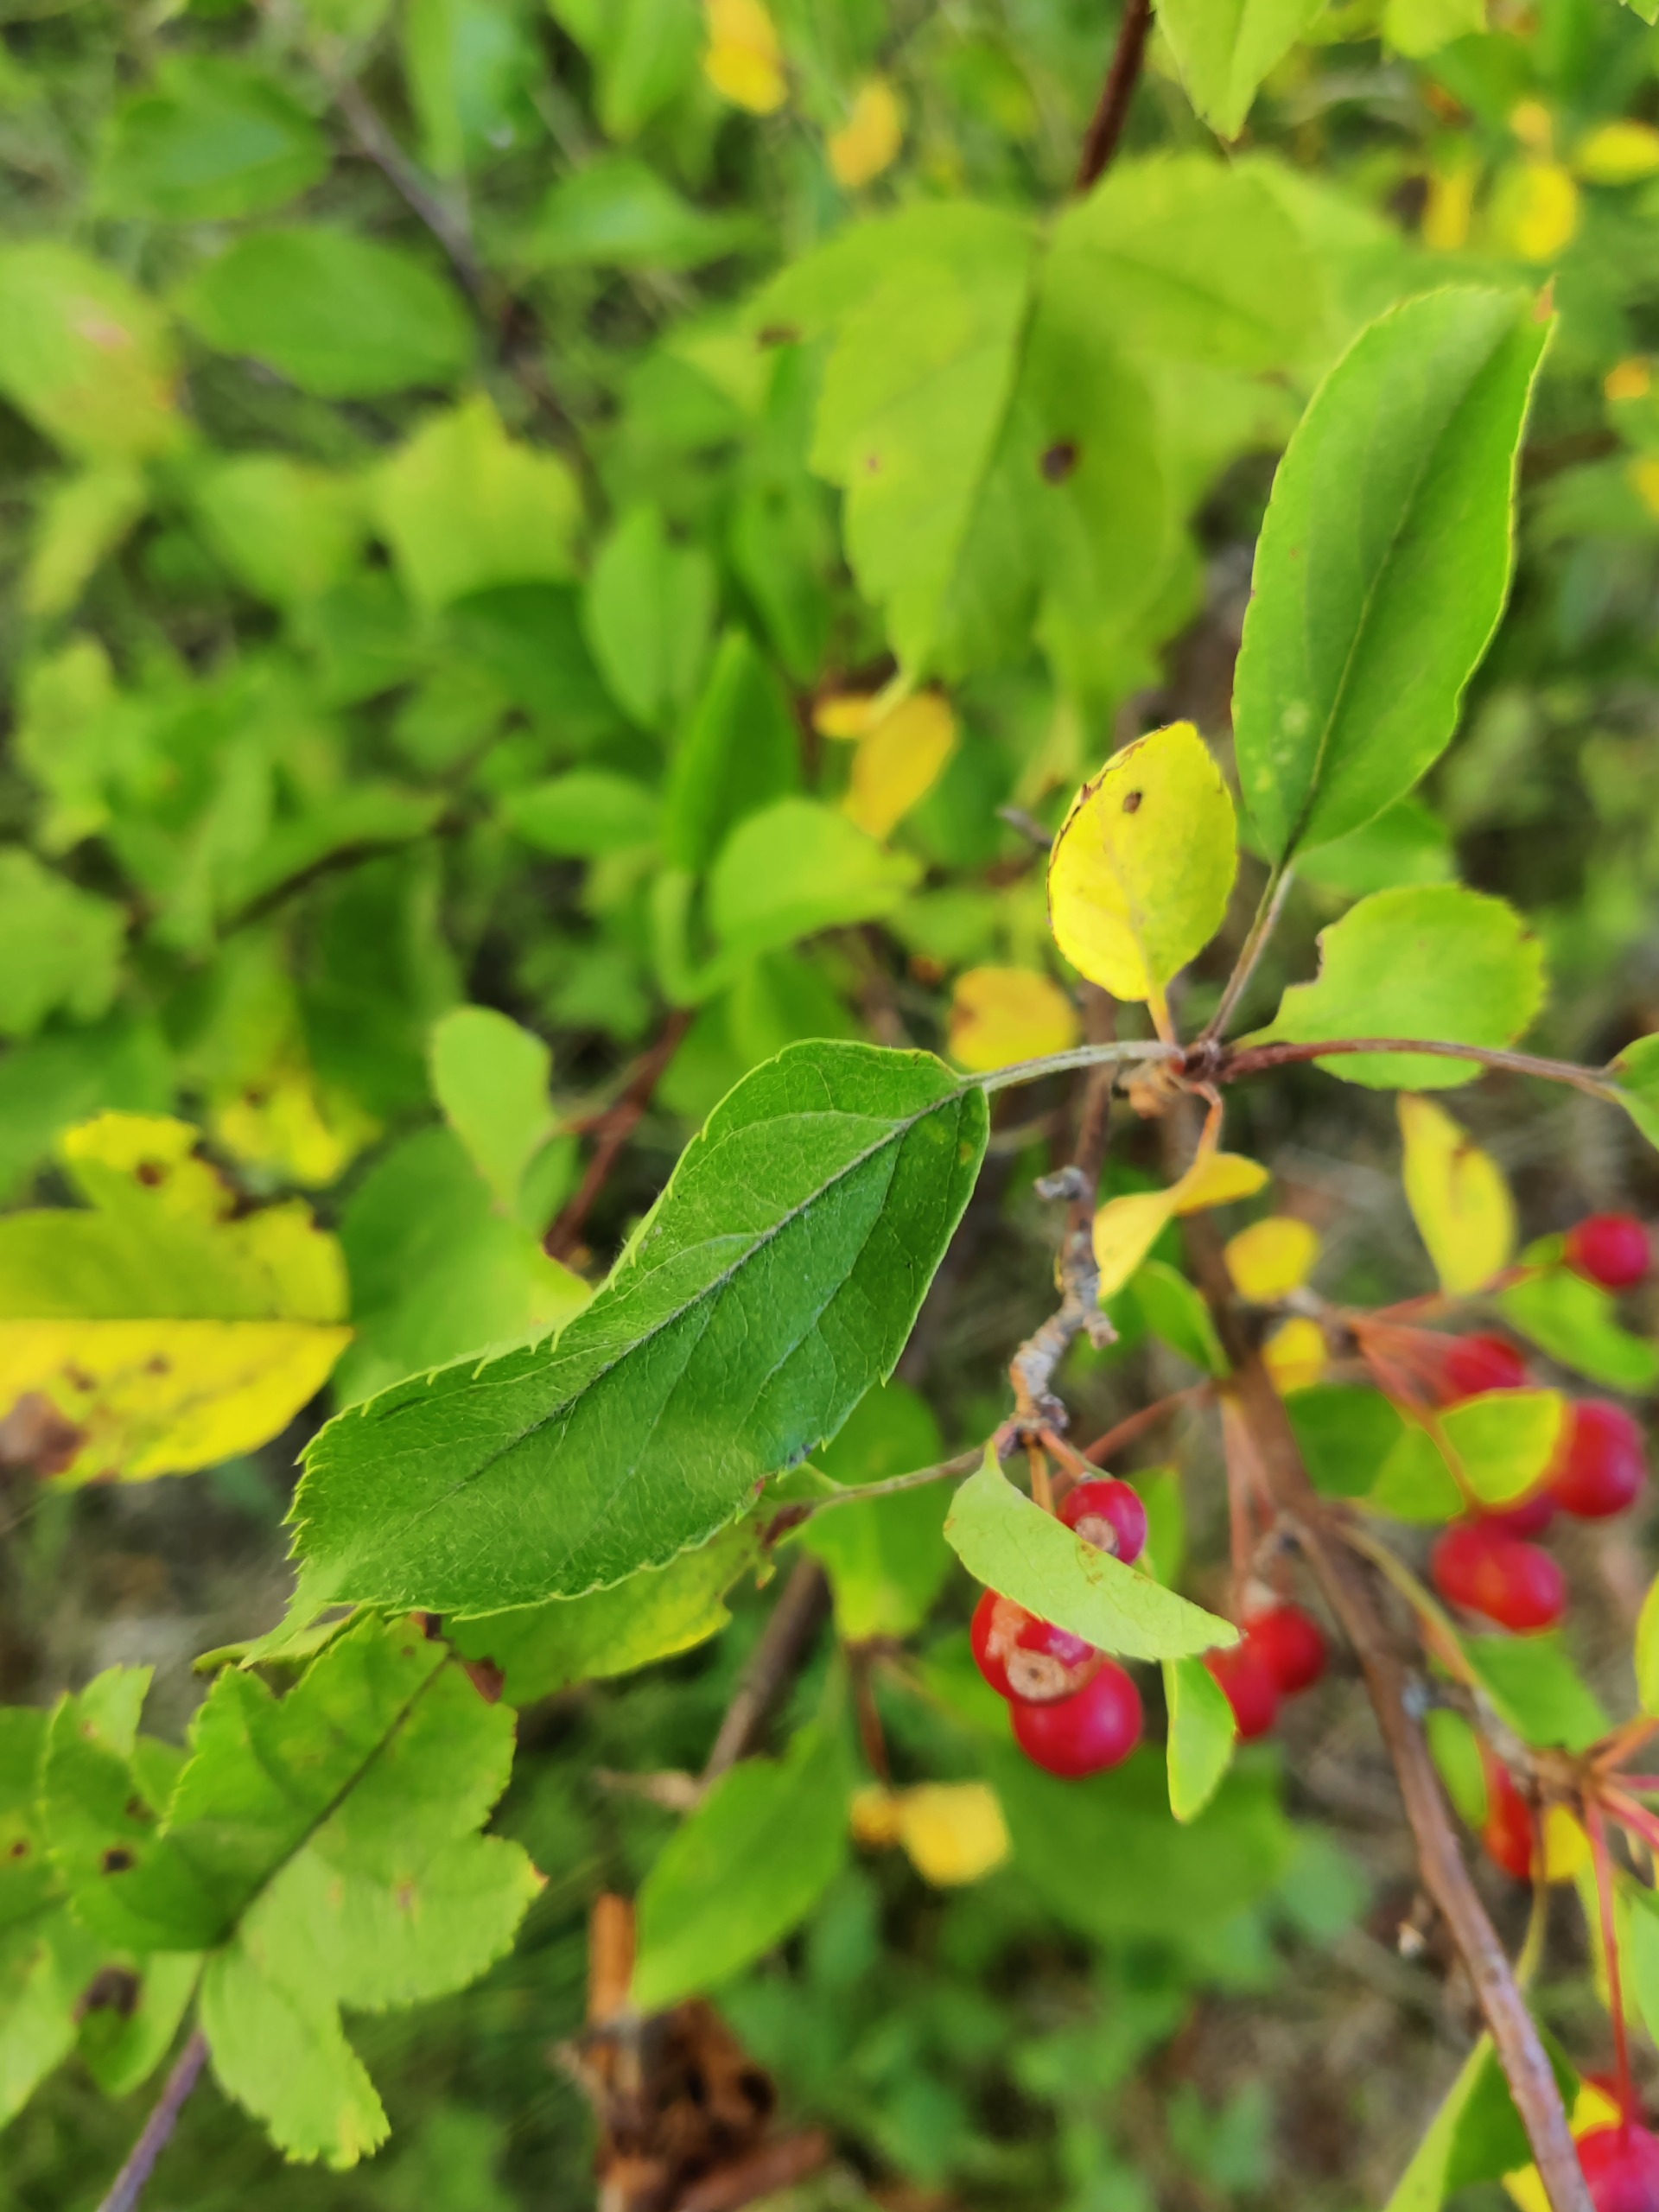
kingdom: Plantae
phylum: Tracheophyta
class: Magnoliopsida
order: Rosales
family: Rosaceae
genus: Malus
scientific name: Malus
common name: Æbleslægten
